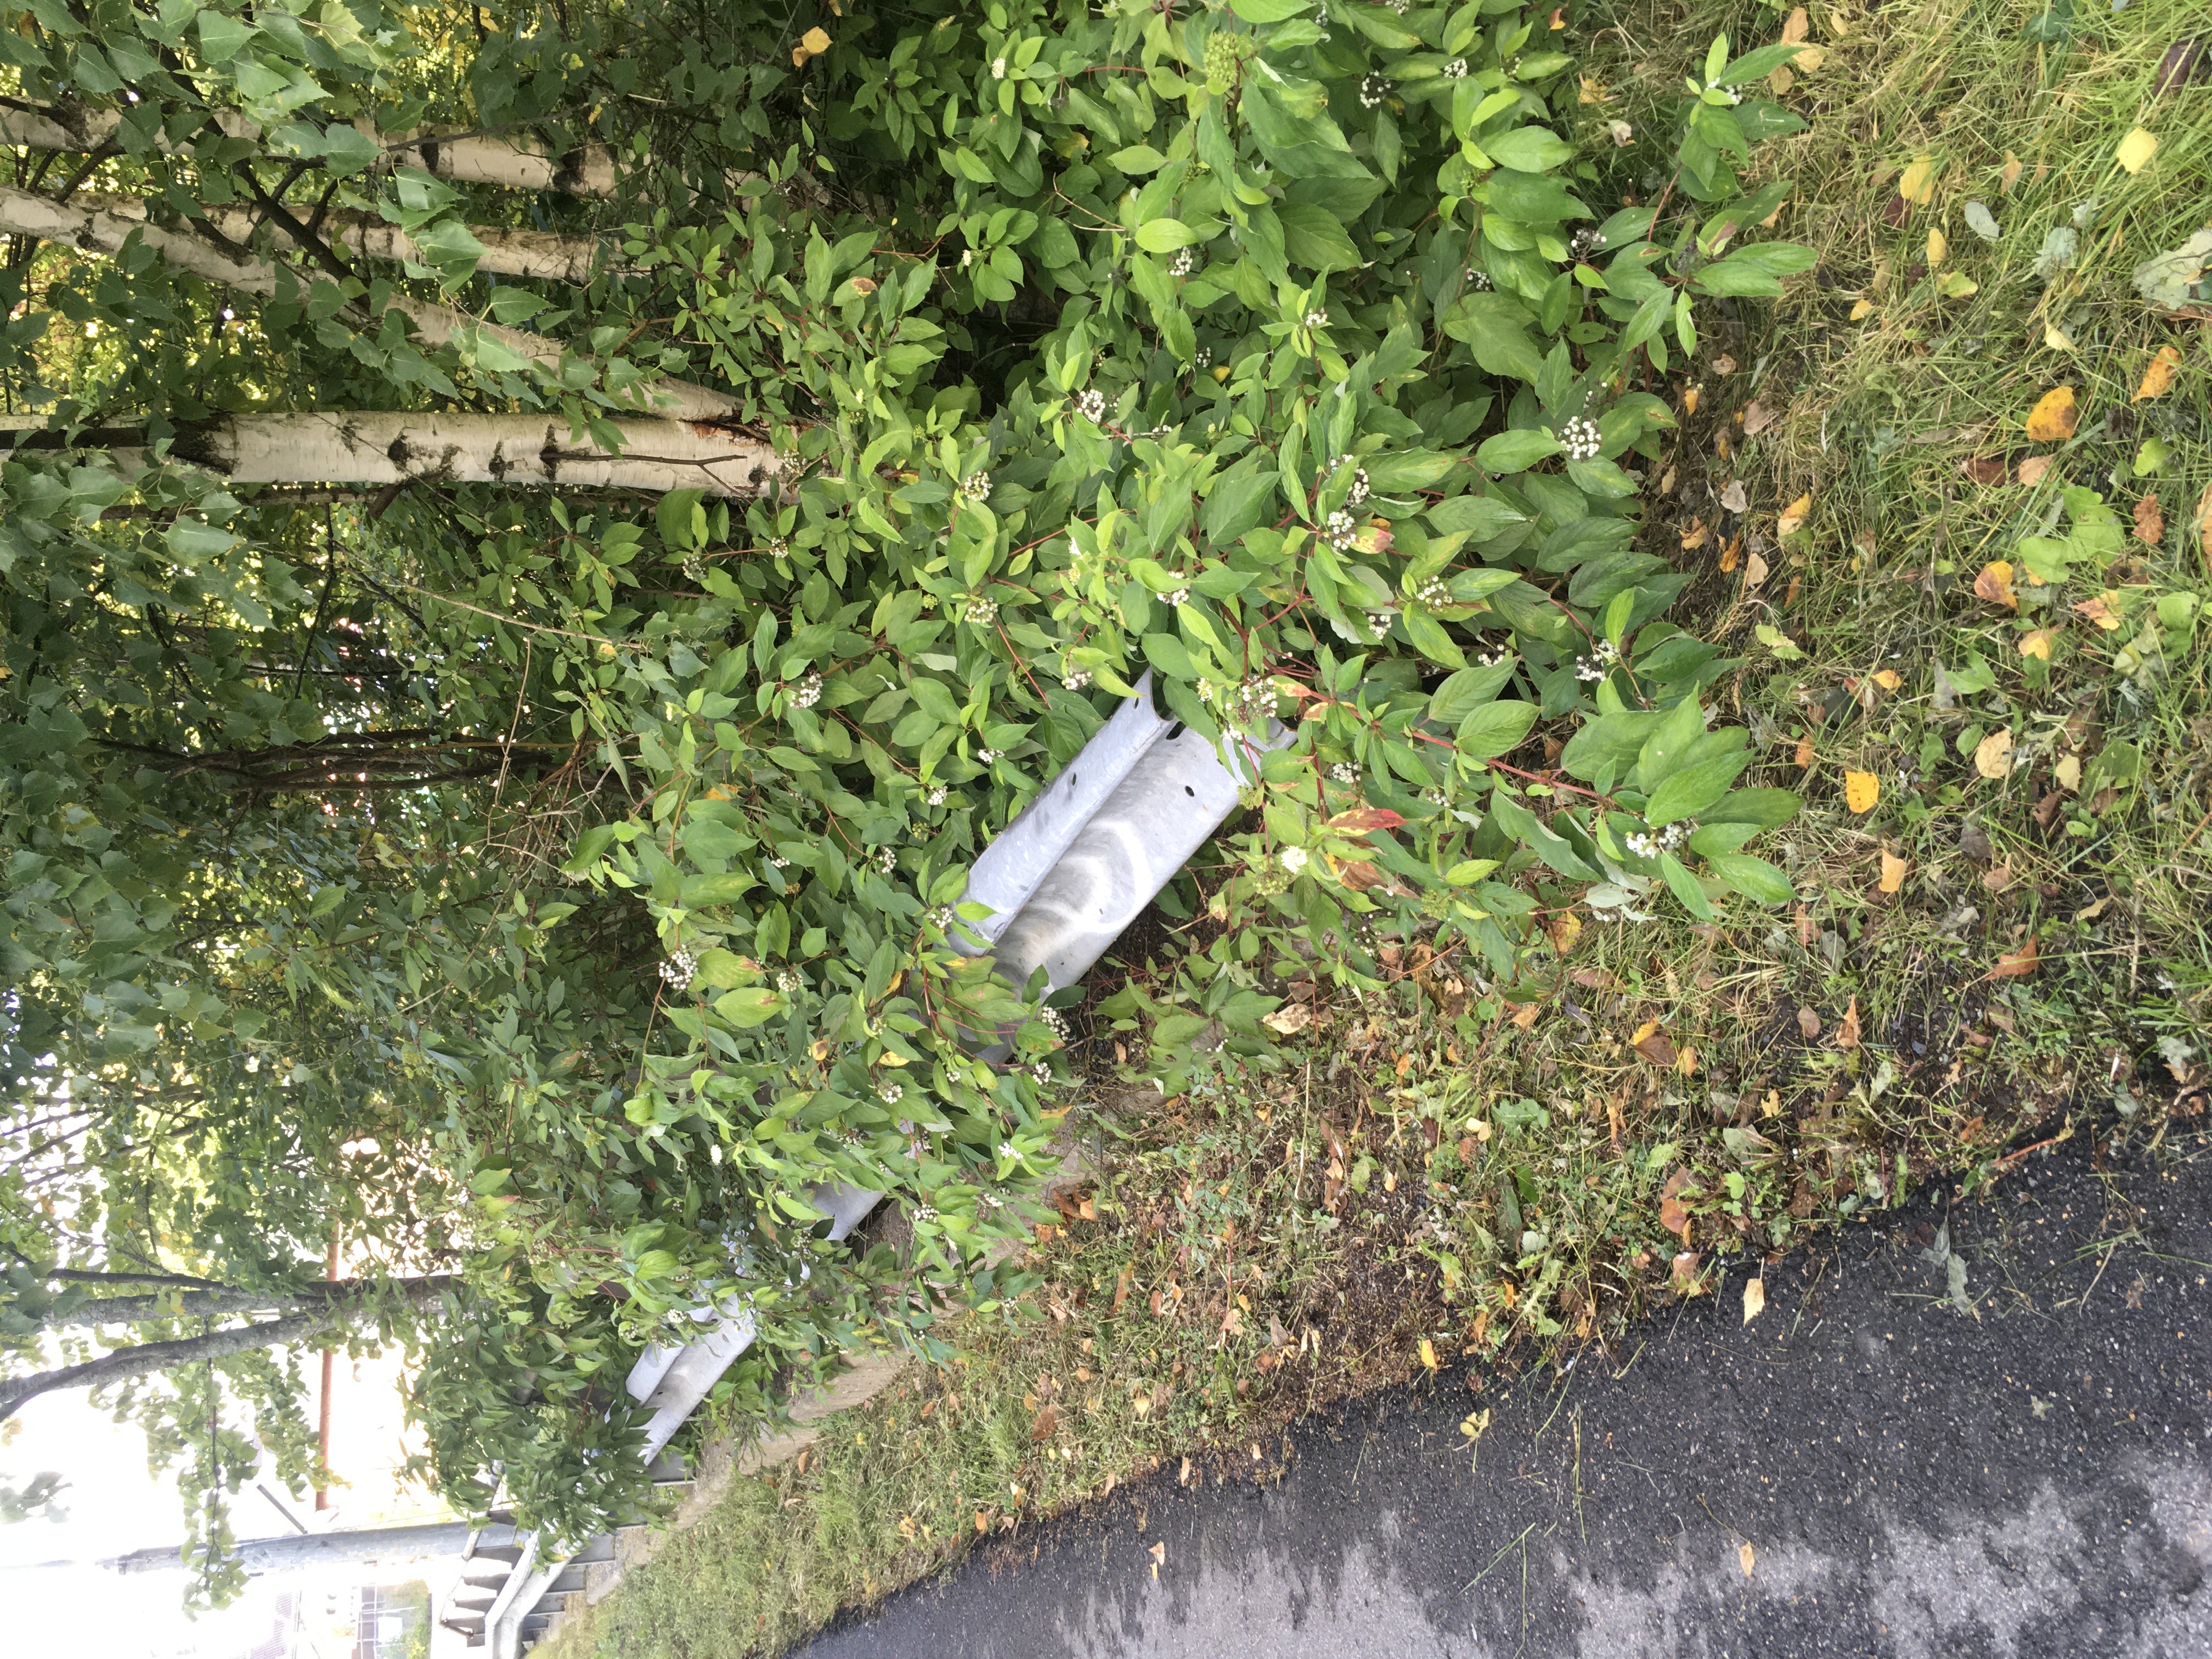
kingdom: Plantae
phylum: Tracheophyta
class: Magnoliopsida
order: Cornales
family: Cornaceae
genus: Cornus
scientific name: Cornus sericea
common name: alaskakornell
